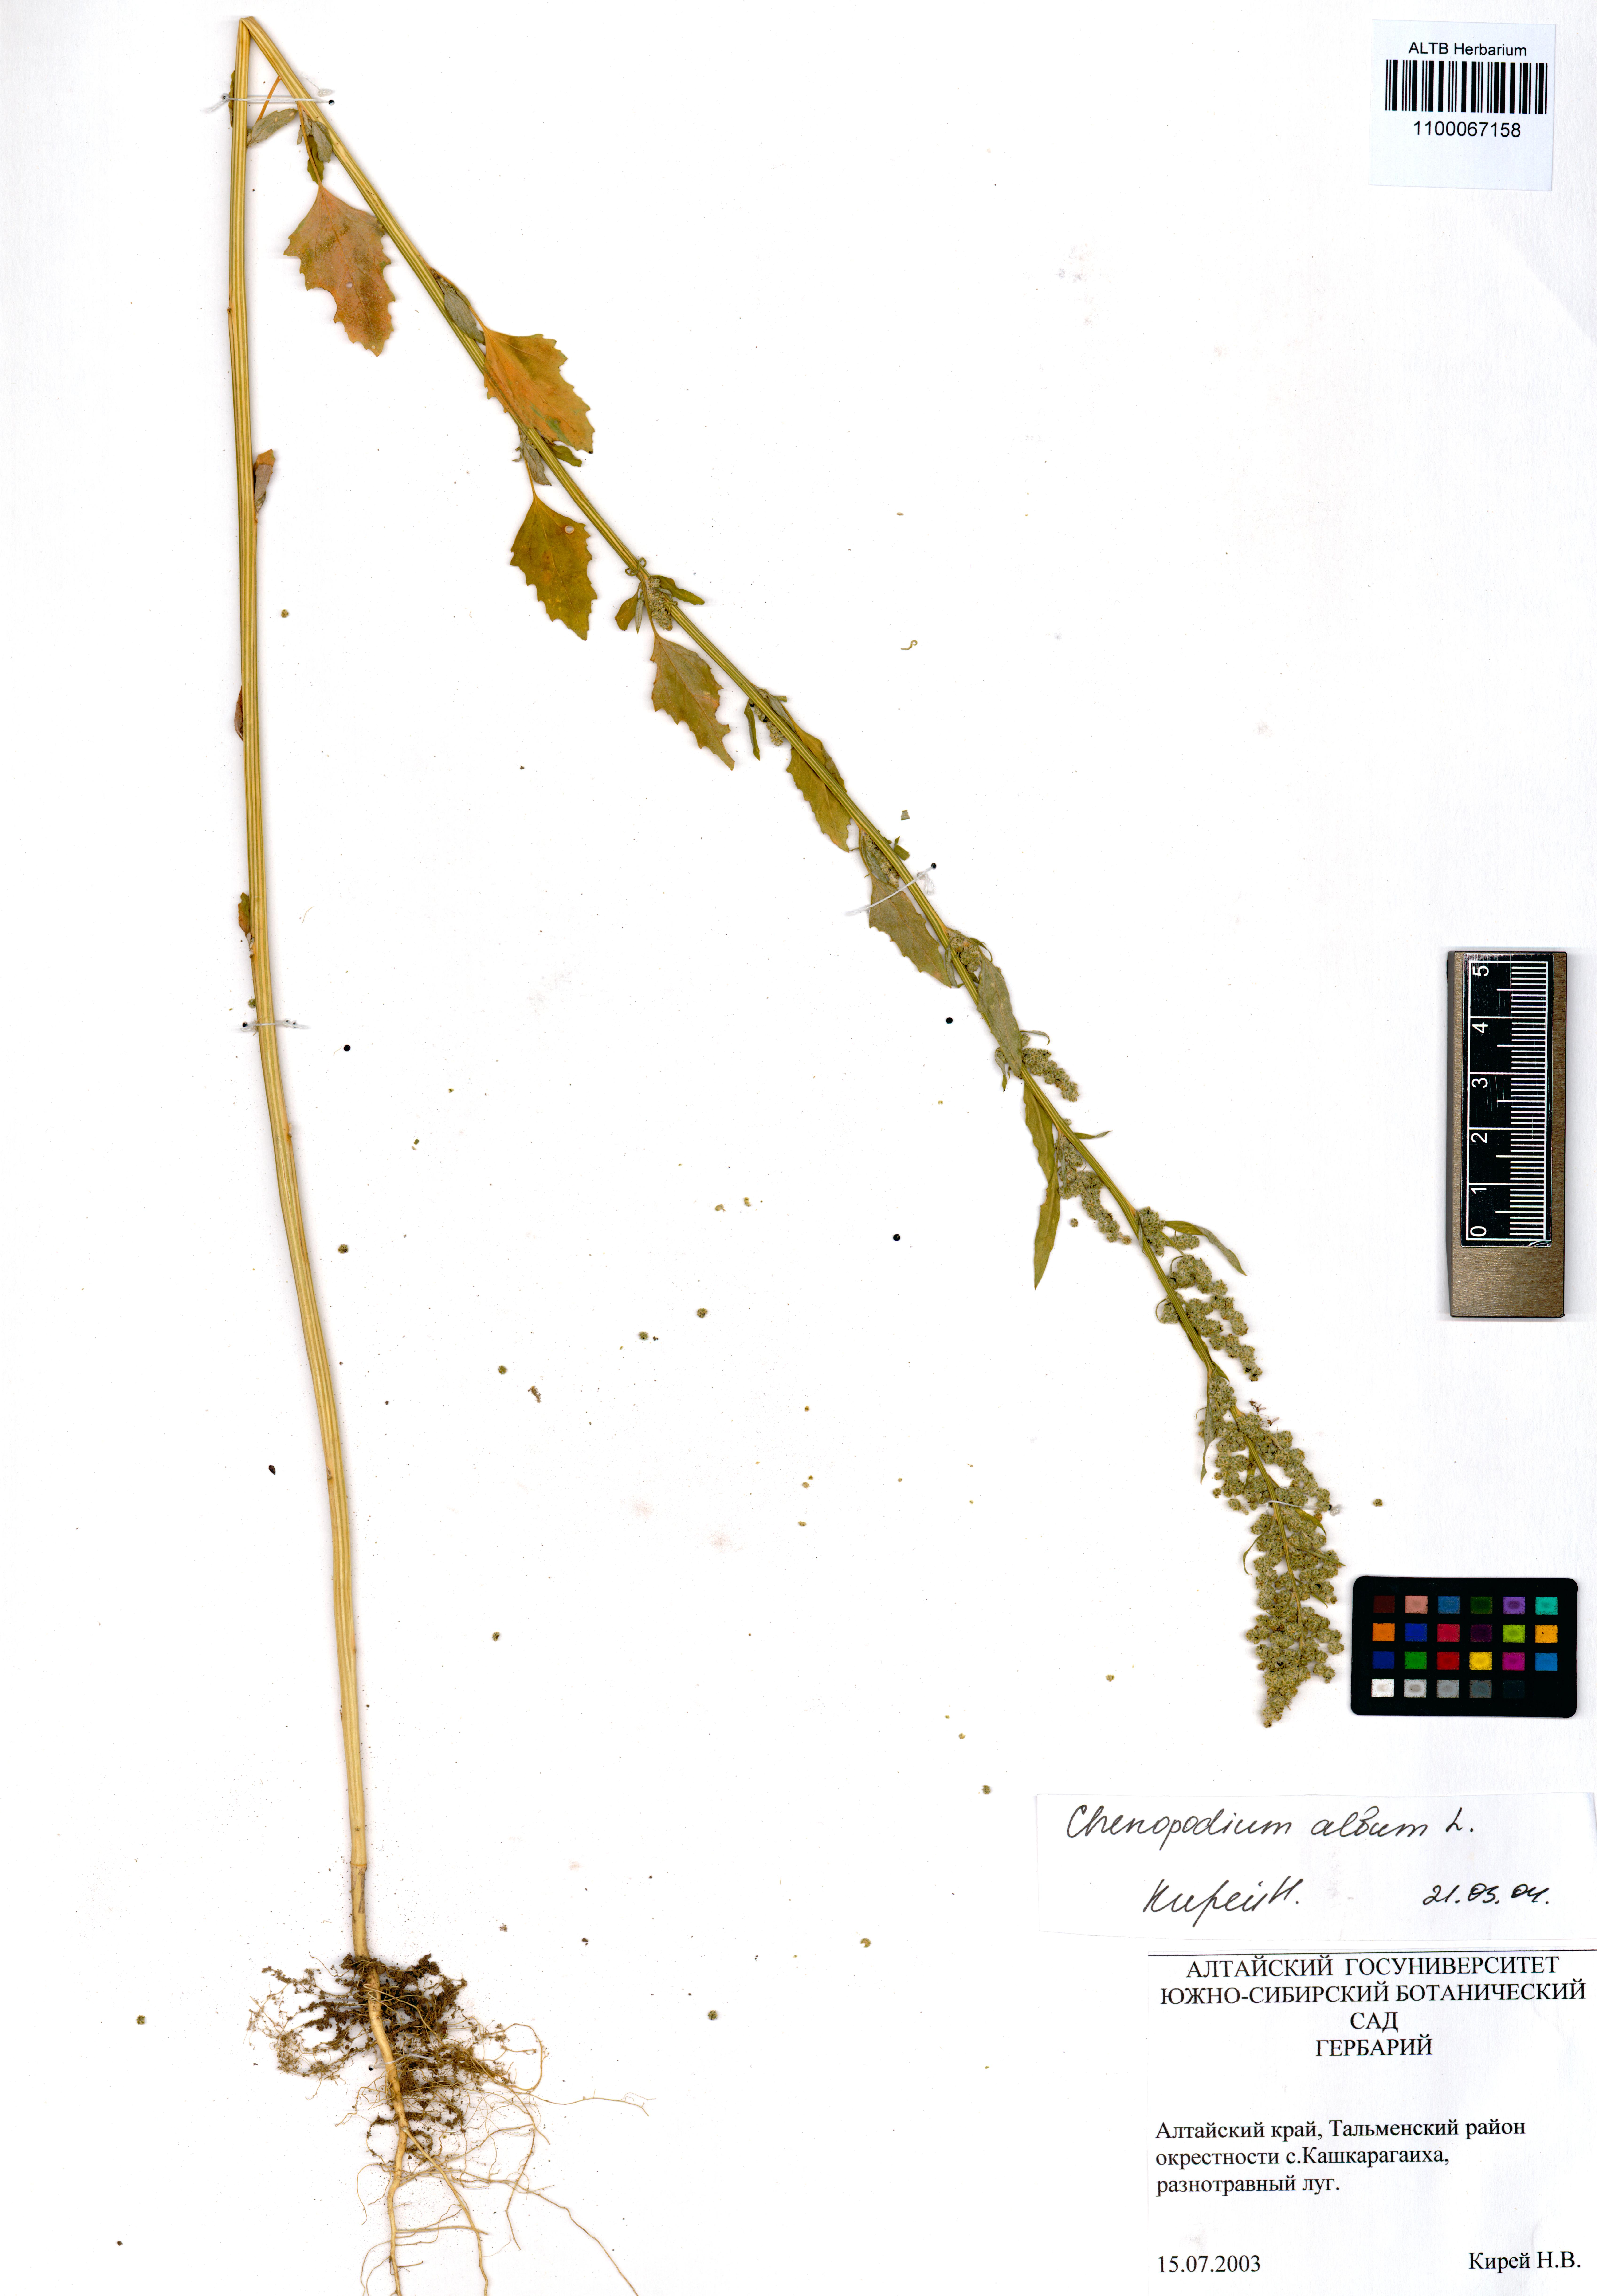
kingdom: Plantae
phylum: Tracheophyta
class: Magnoliopsida
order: Caryophyllales
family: Amaranthaceae
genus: Chenopodium
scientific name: Chenopodium album
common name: Fat-hen
